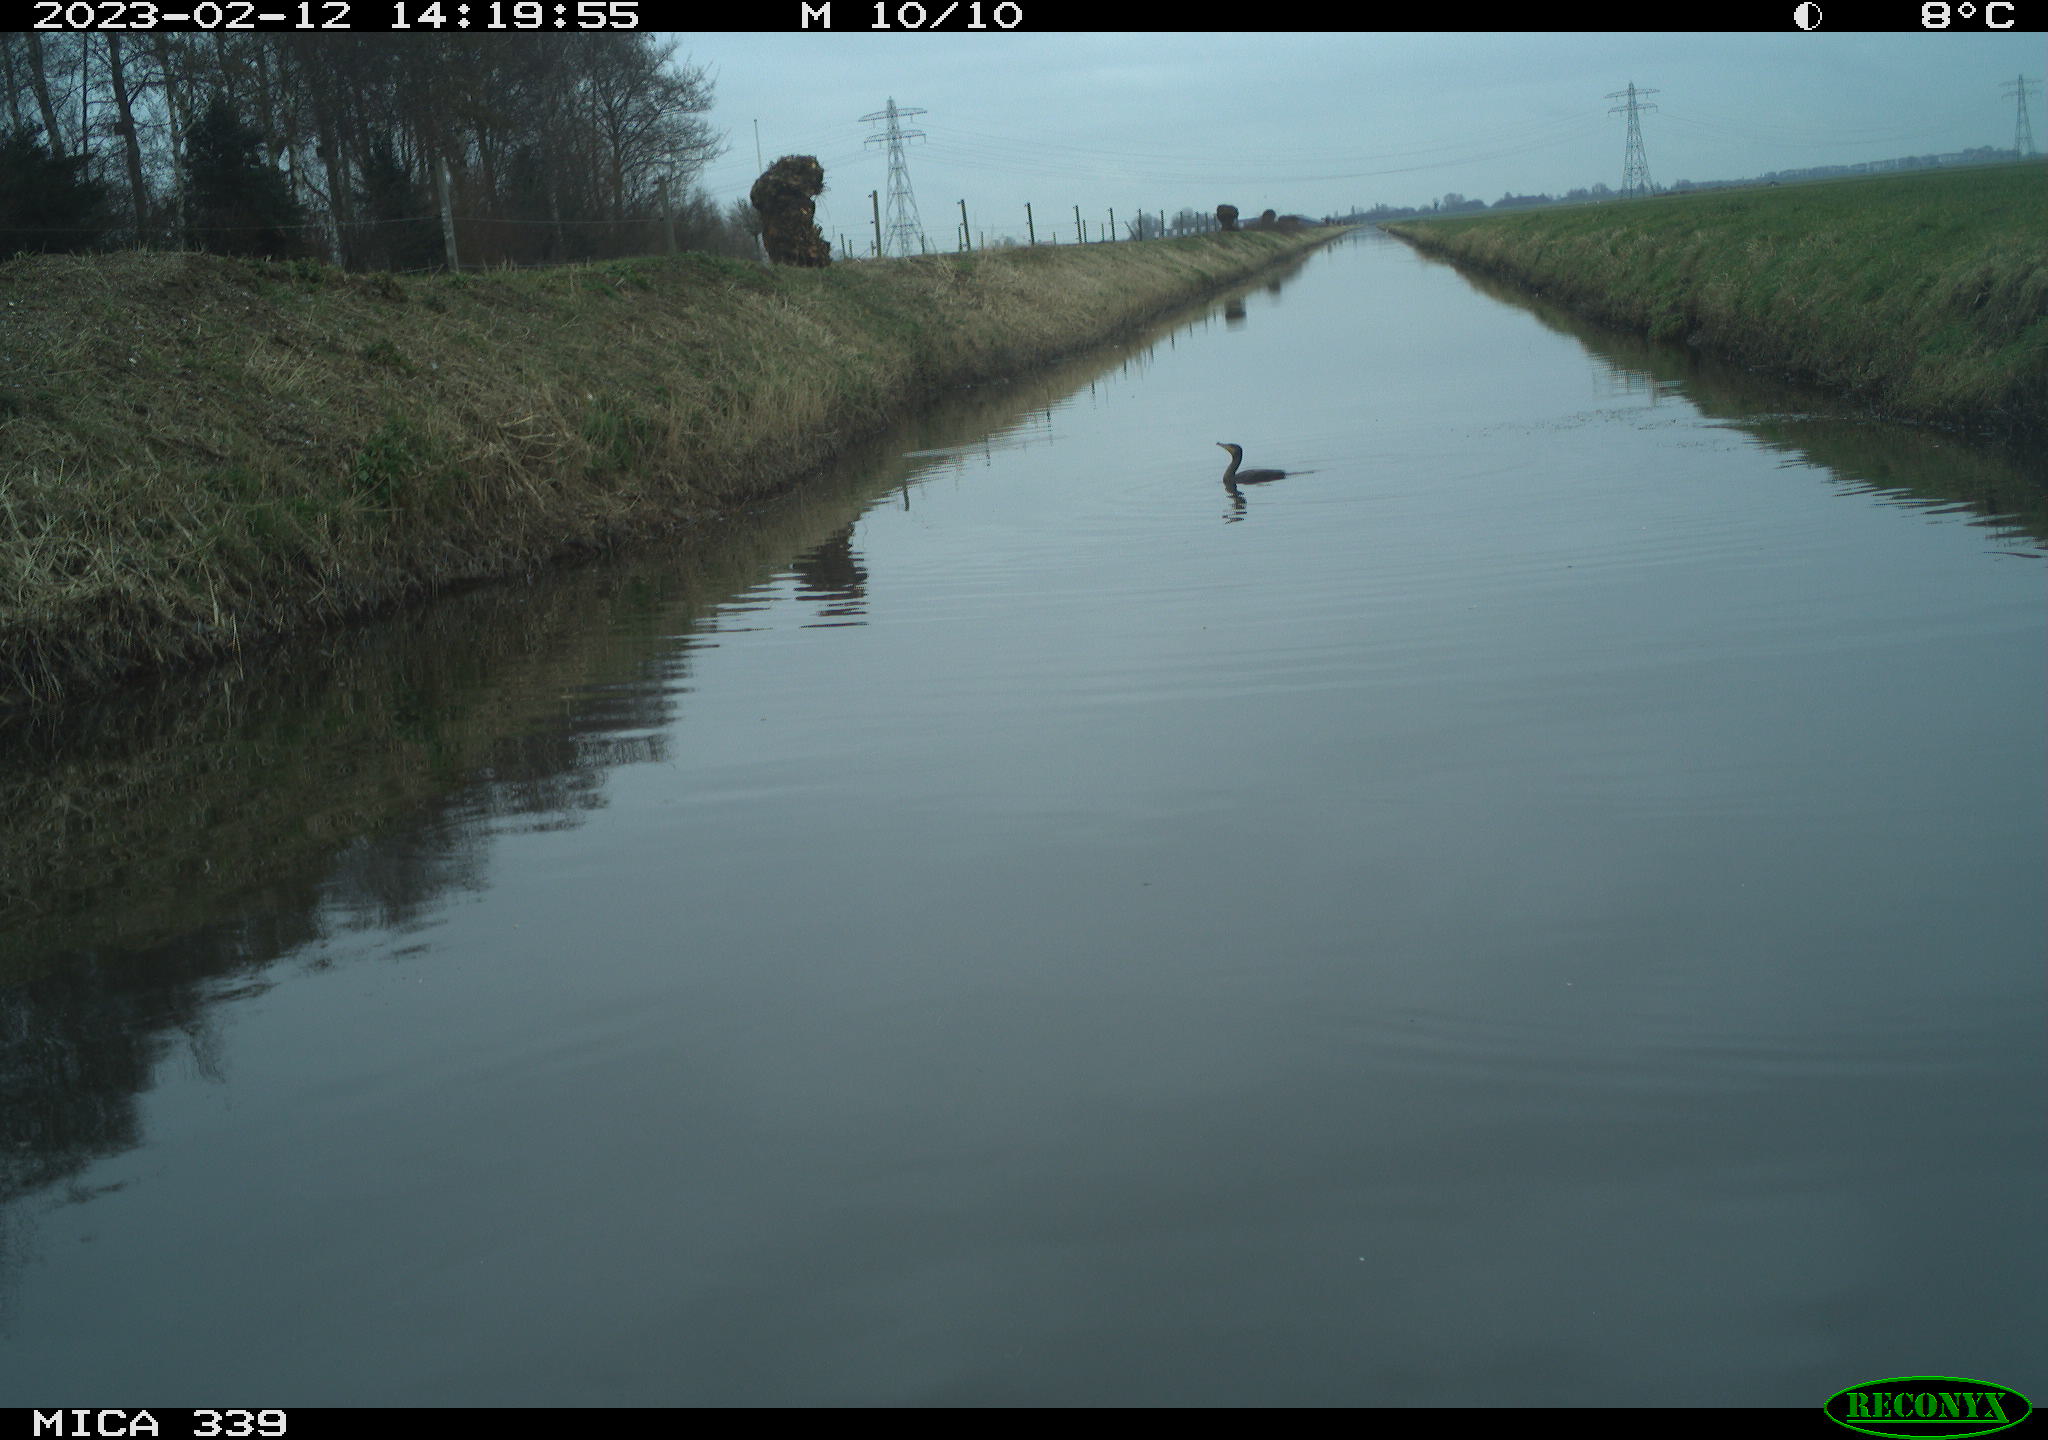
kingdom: Animalia
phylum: Chordata
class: Aves
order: Suliformes
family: Phalacrocoracidae
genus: Phalacrocorax
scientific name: Phalacrocorax carbo
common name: Great cormorant
